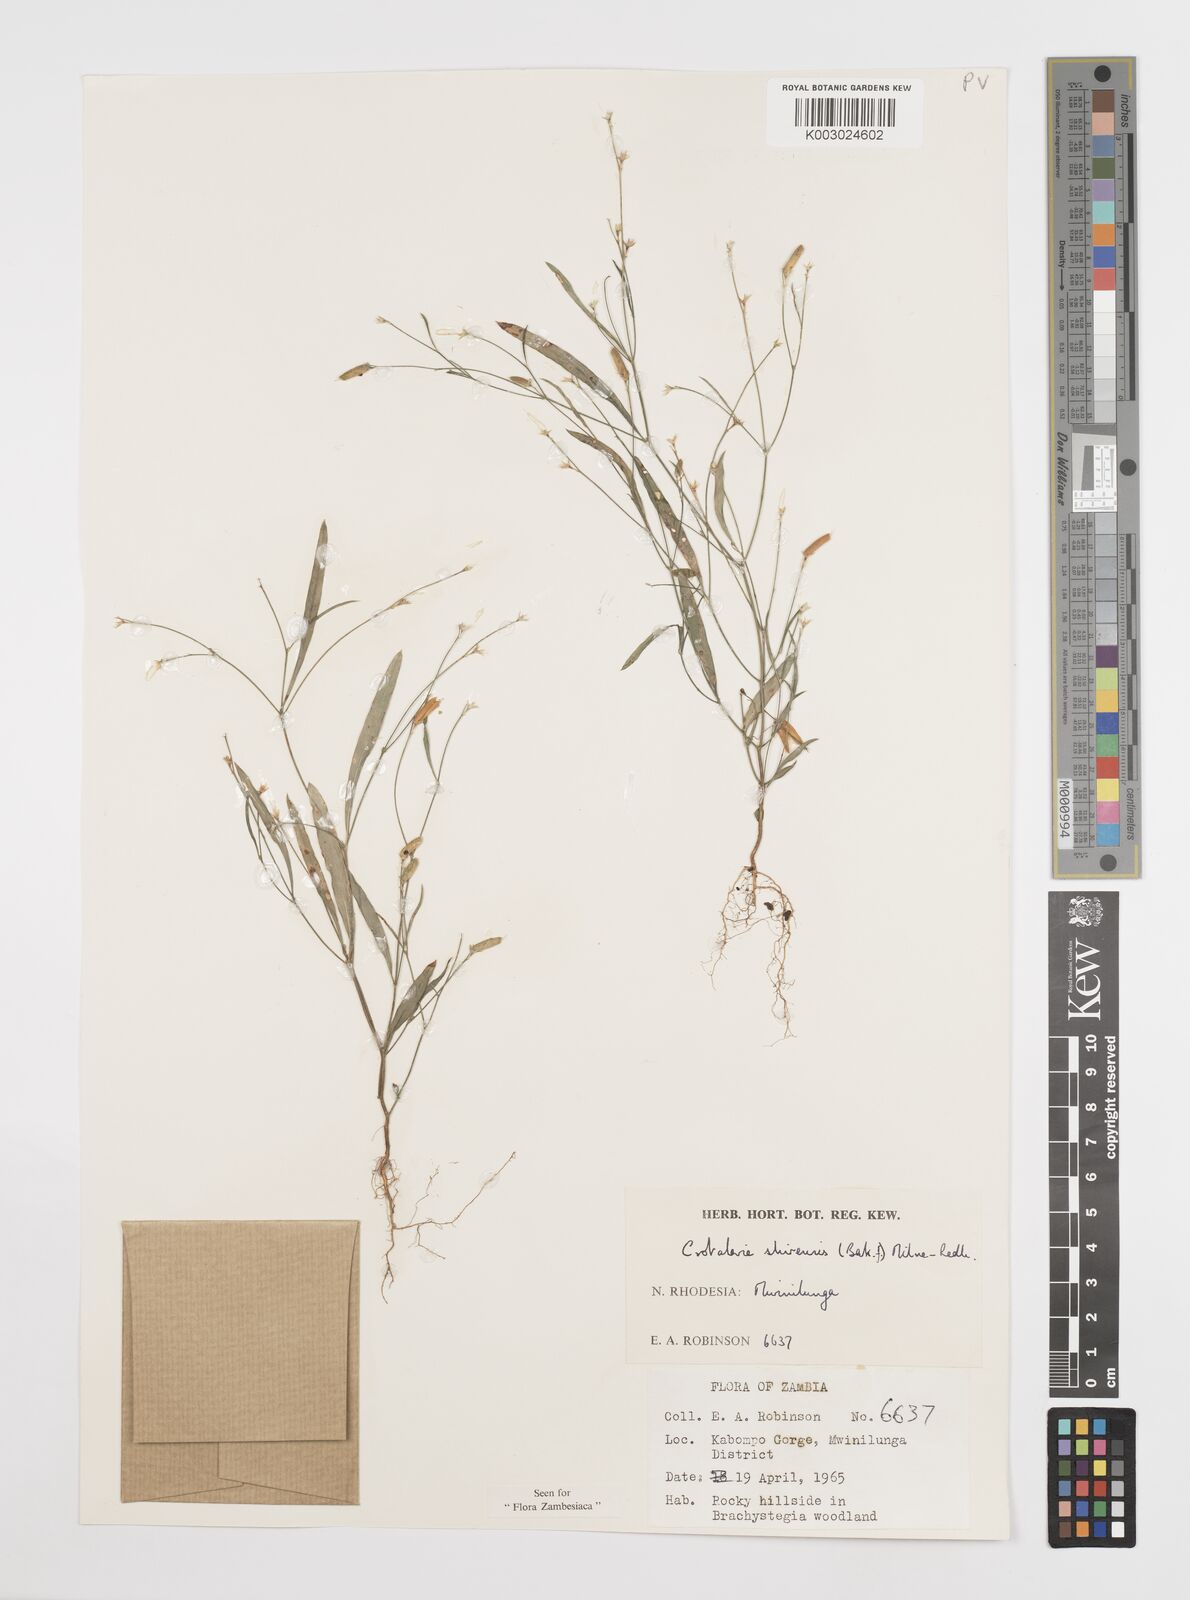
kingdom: Plantae
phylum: Tracheophyta
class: Magnoliopsida
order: Fabales
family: Fabaceae
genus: Crotalaria
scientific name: Crotalaria shirensis
